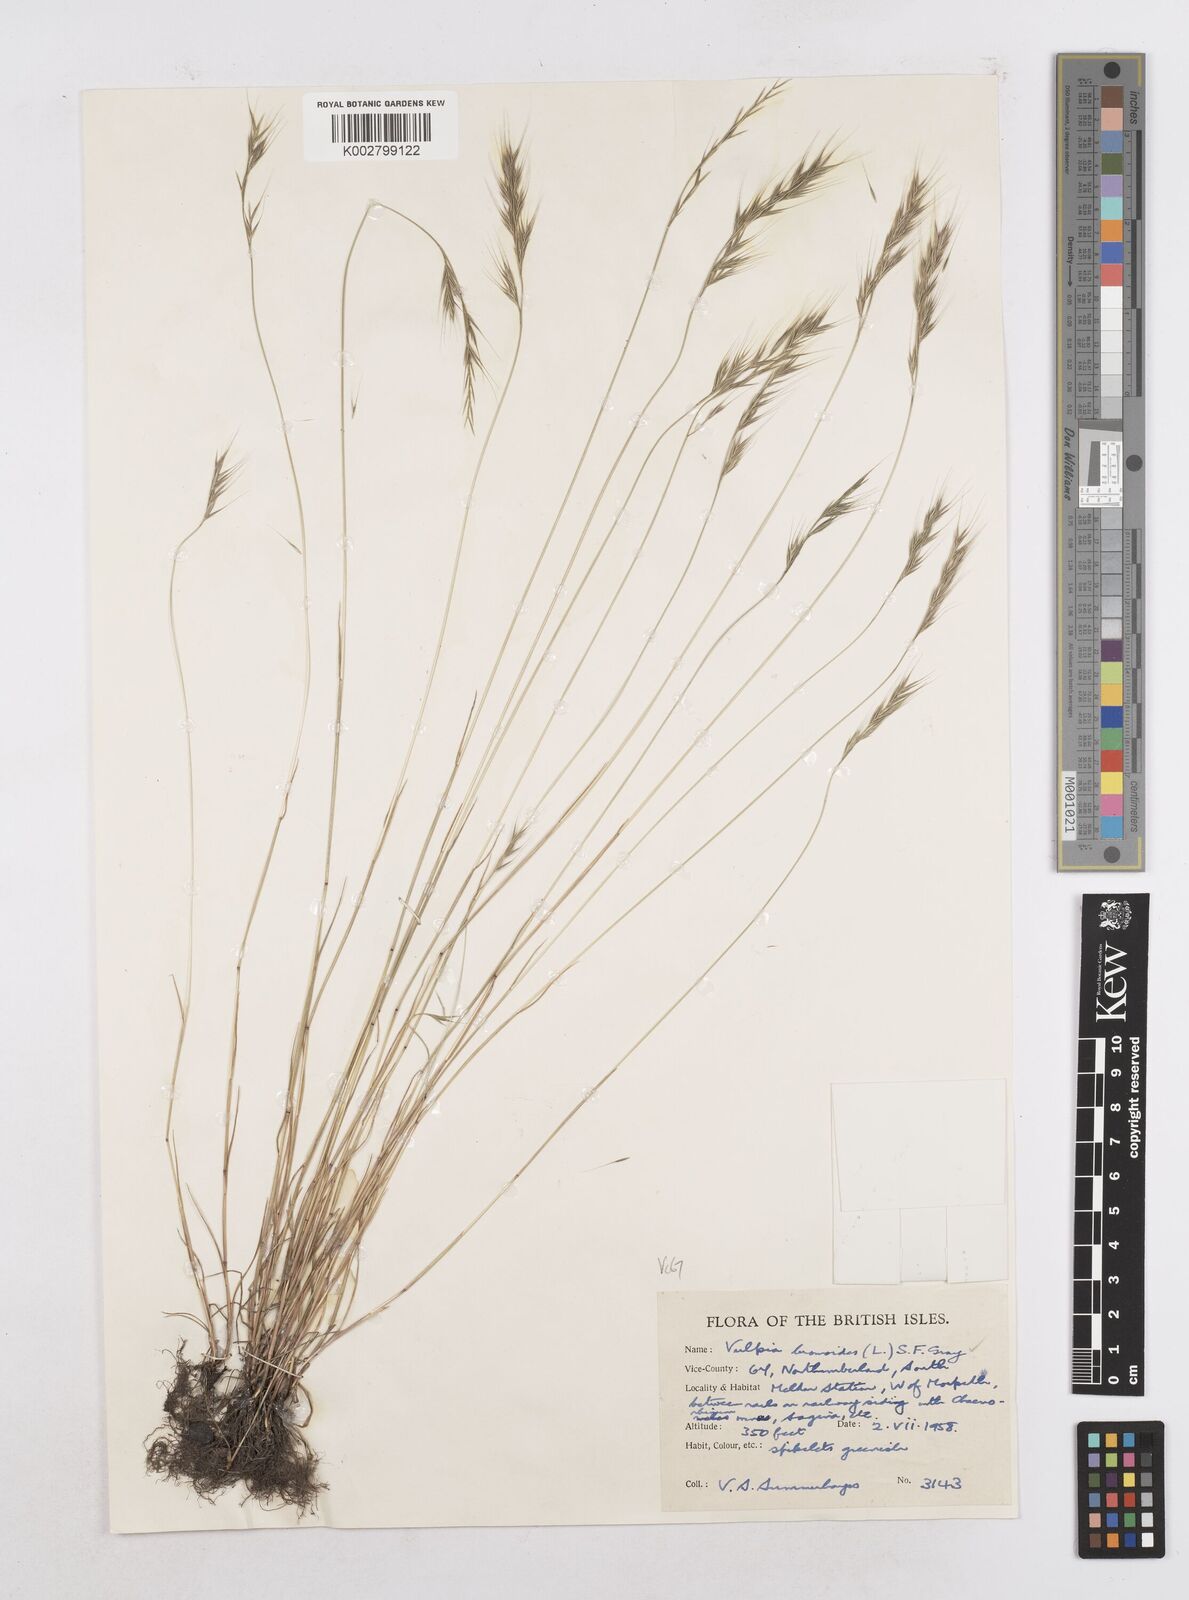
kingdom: Plantae
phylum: Tracheophyta
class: Liliopsida
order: Poales
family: Poaceae
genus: Festuca
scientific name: Festuca bromoides
